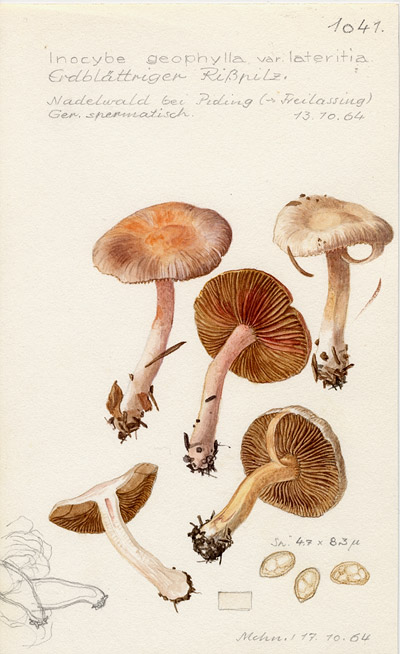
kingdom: Fungi
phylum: Basidiomycota
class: Agaricomycetes
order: Agaricales
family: Inocybaceae
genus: Inocybe
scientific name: Inocybe whitei
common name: Blushing fibrecap
